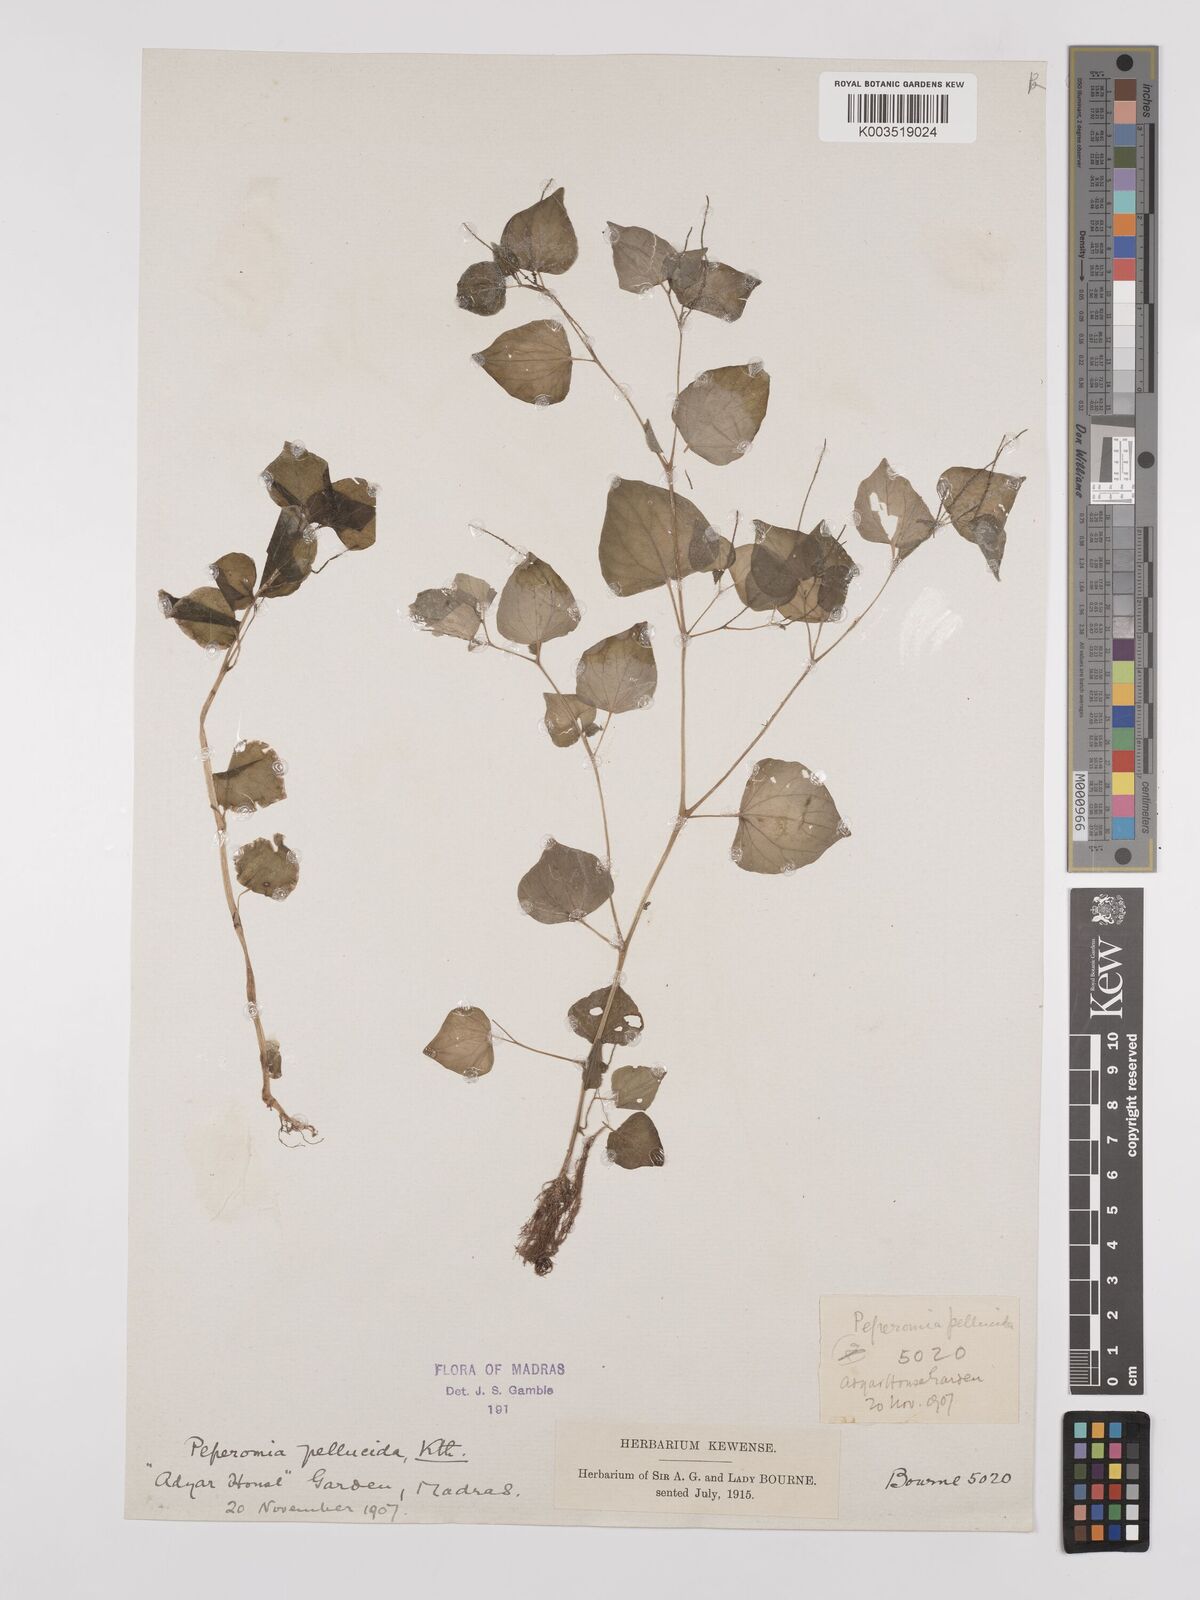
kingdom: Plantae
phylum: Tracheophyta
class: Magnoliopsida
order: Piperales
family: Piperaceae
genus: Peperomia
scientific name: Peperomia pellucida
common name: Man to man
